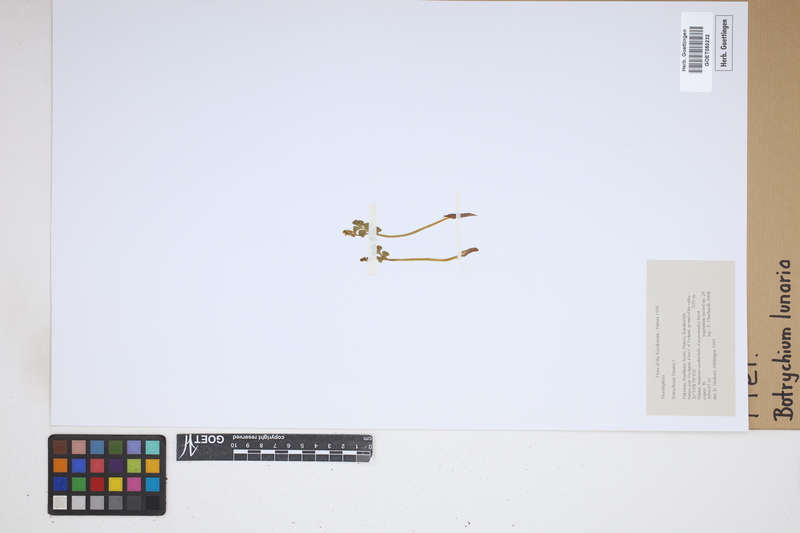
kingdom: Plantae
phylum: Tracheophyta
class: Polypodiopsida
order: Ophioglossales
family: Ophioglossaceae
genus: Botrychium
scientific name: Botrychium lunaria
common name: Moonwort
